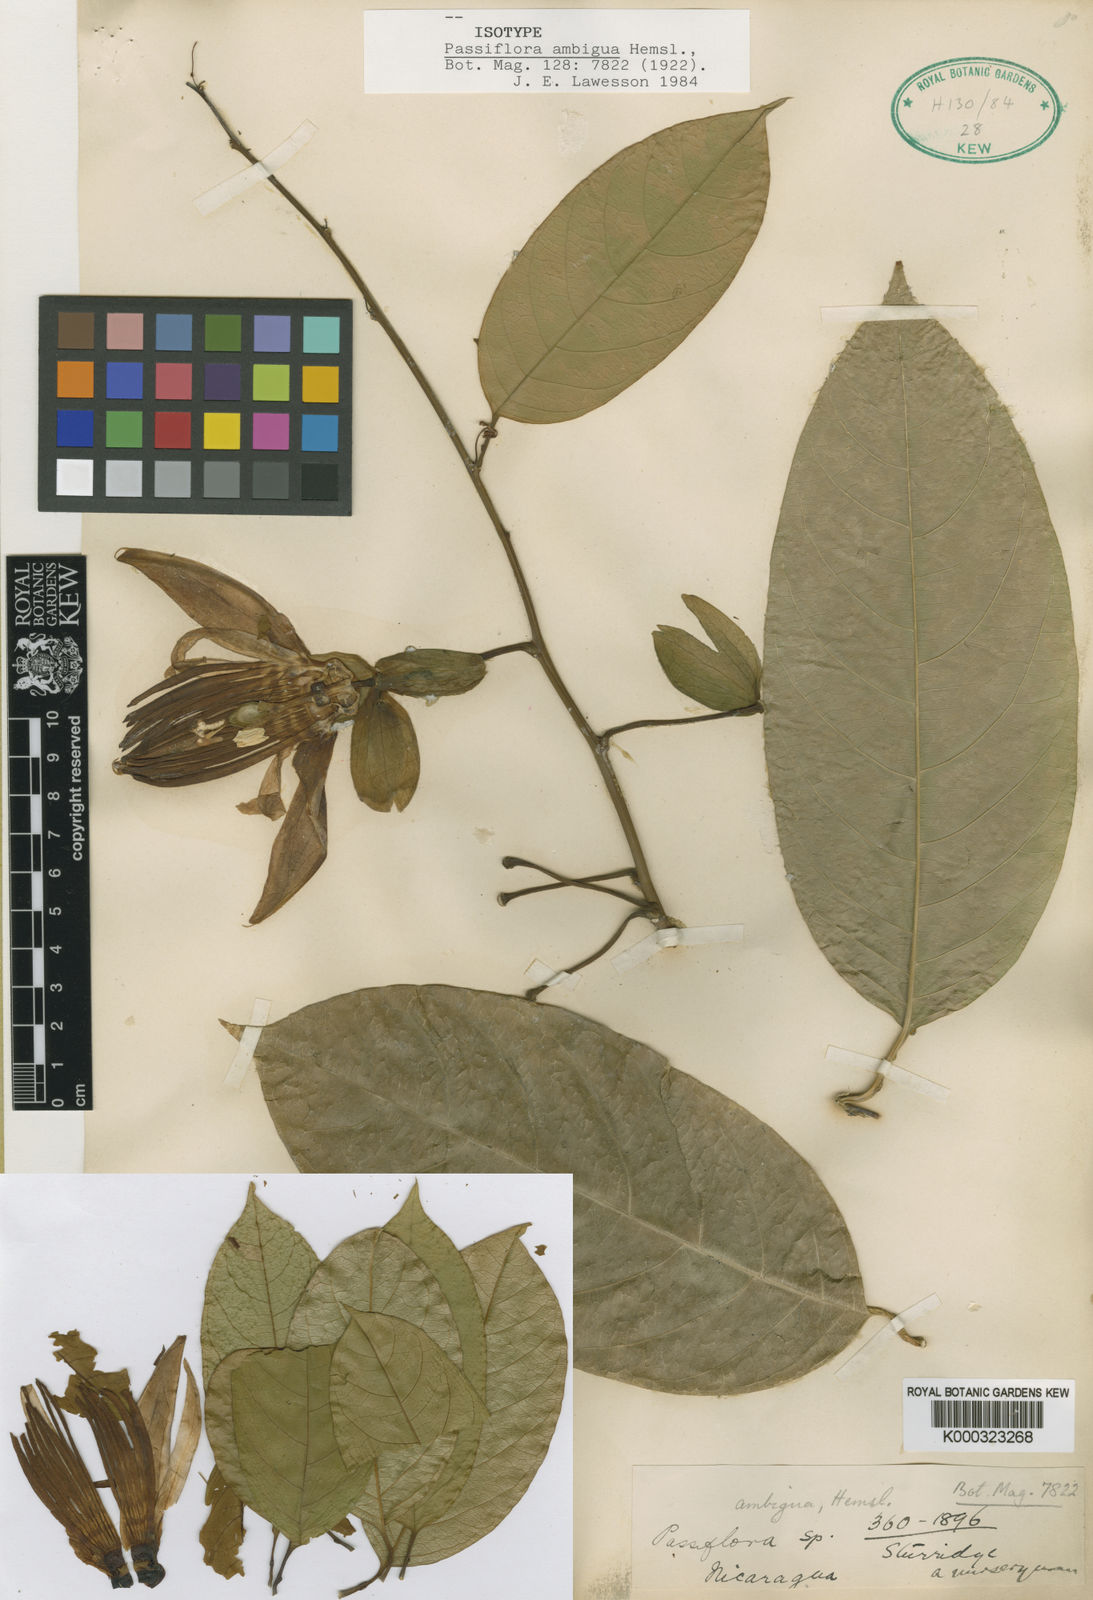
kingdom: Plantae
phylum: Tracheophyta
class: Magnoliopsida
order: Malpighiales
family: Passifloraceae
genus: Passiflora
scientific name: Passiflora ambigua
